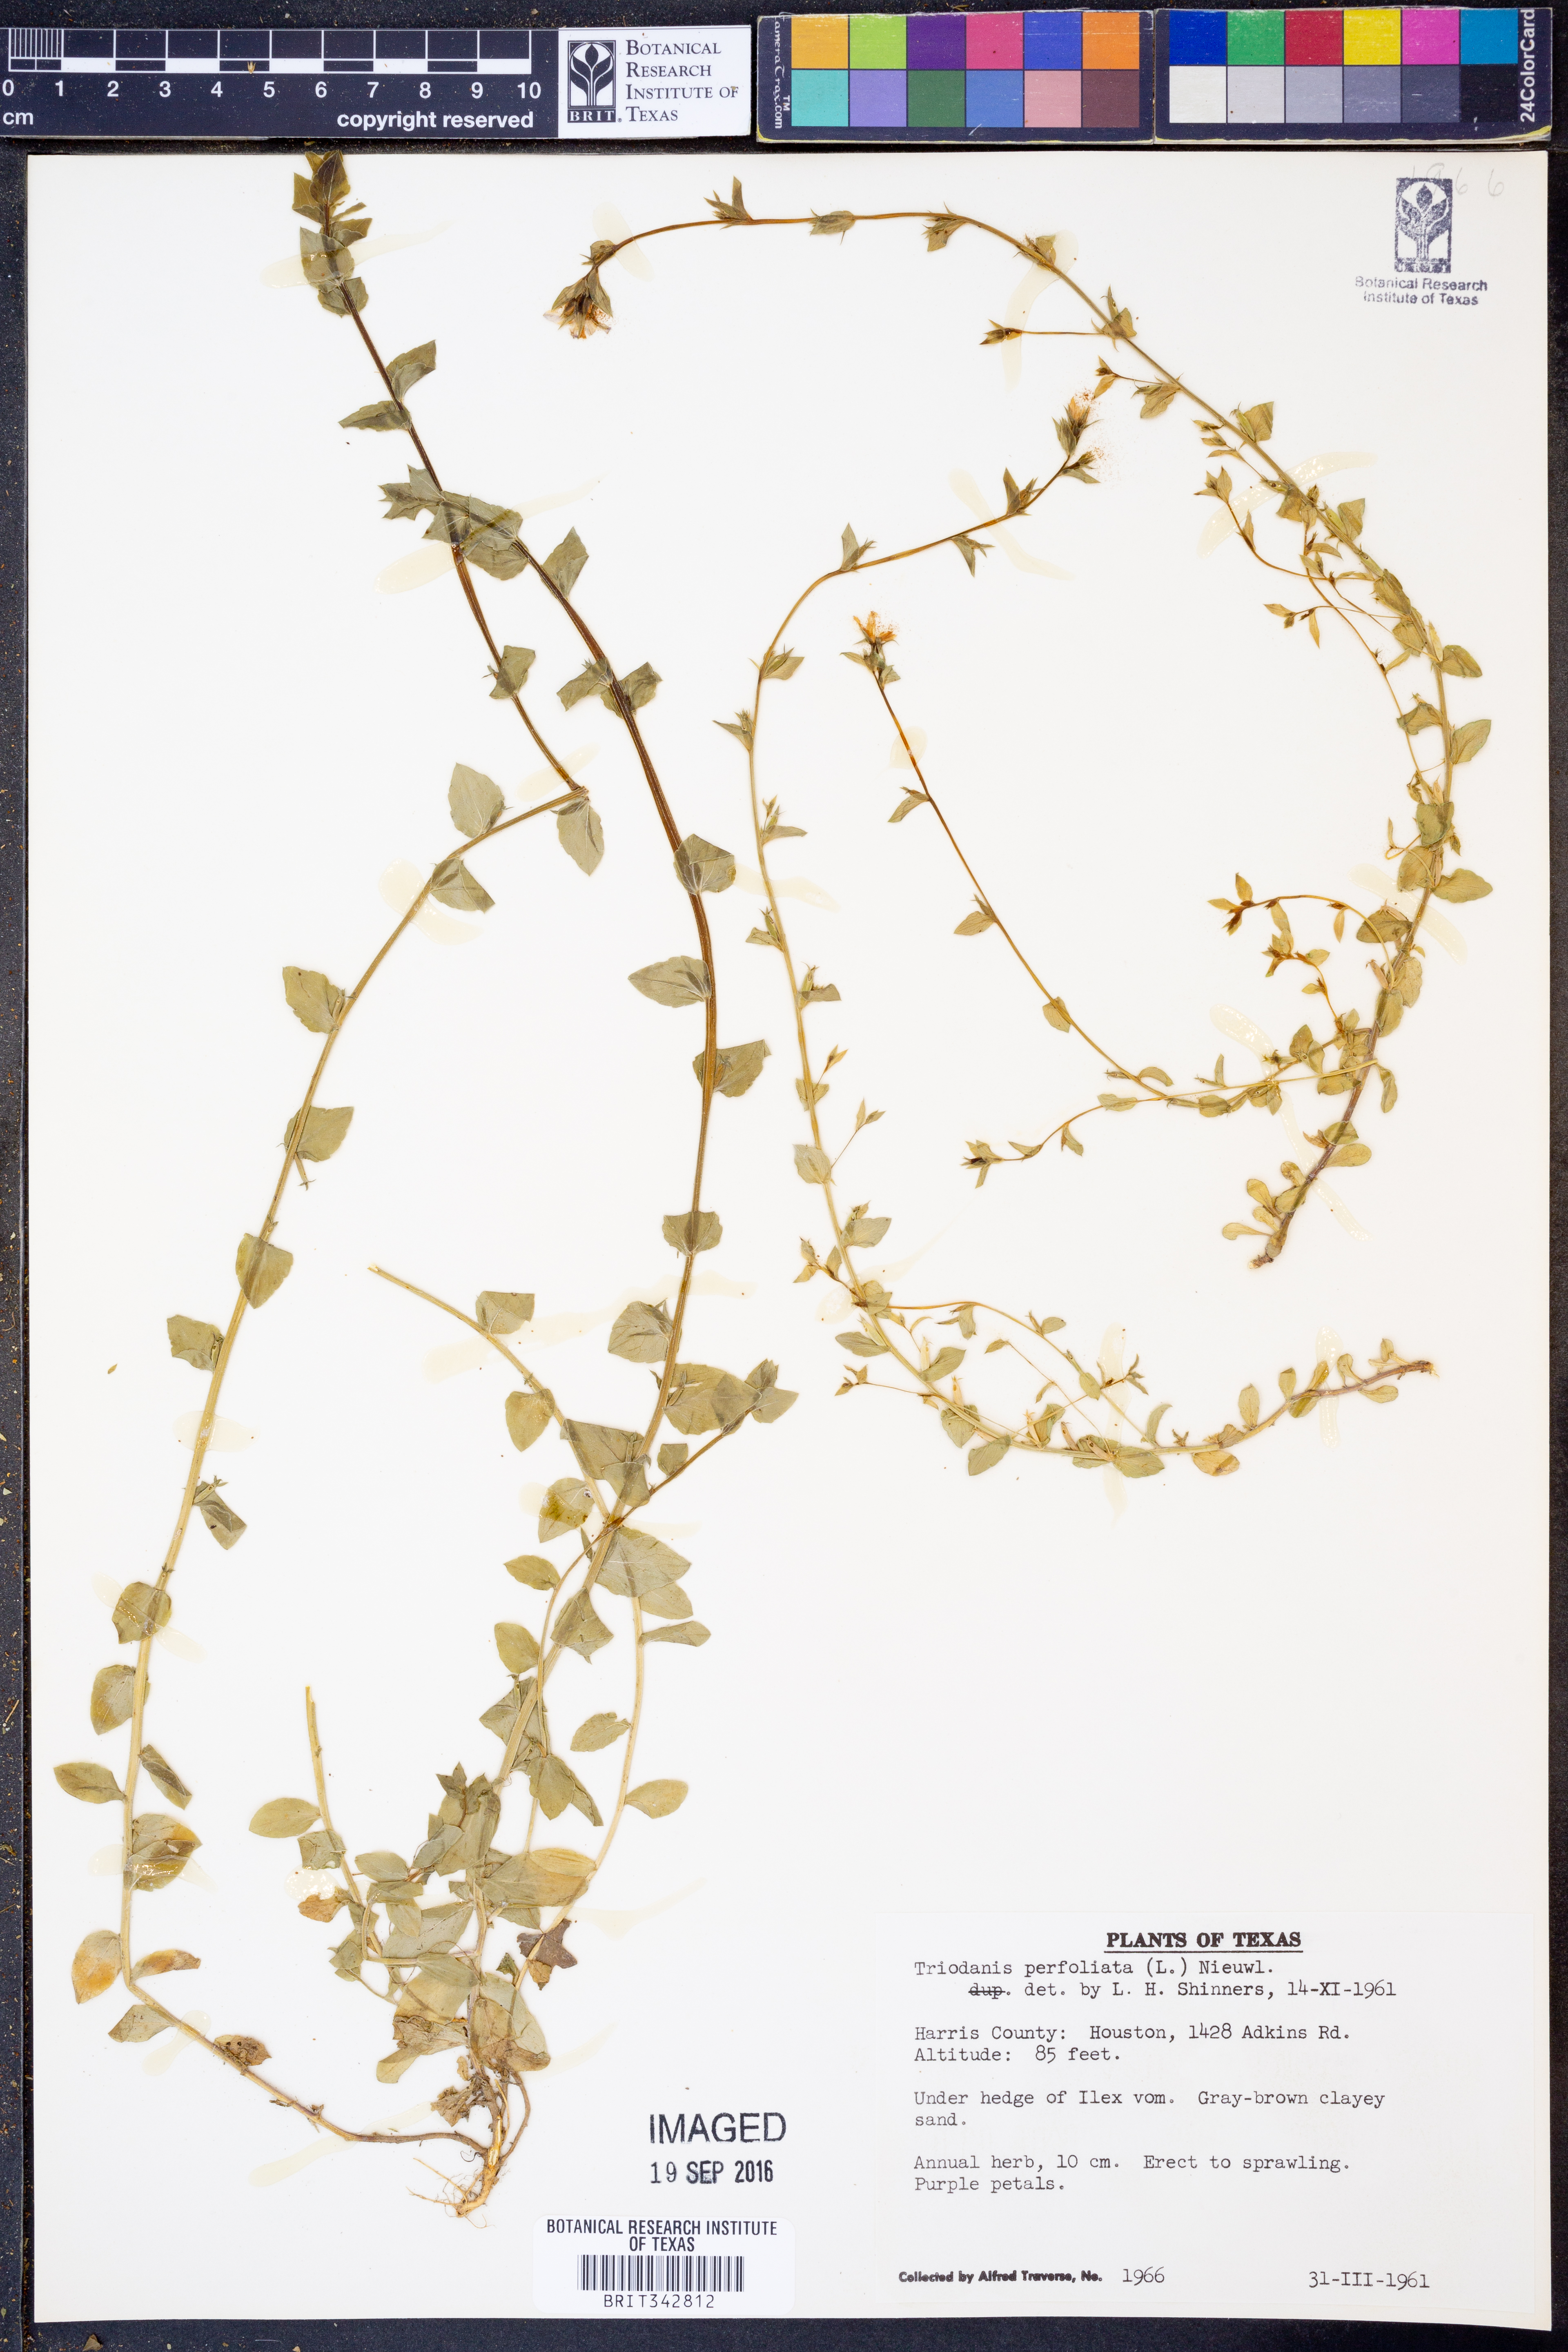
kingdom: Plantae
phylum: Tracheophyta
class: Magnoliopsida
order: Asterales
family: Campanulaceae
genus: Triodanis
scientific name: Triodanis perfoliata
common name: Clasping venus' looking-glass
